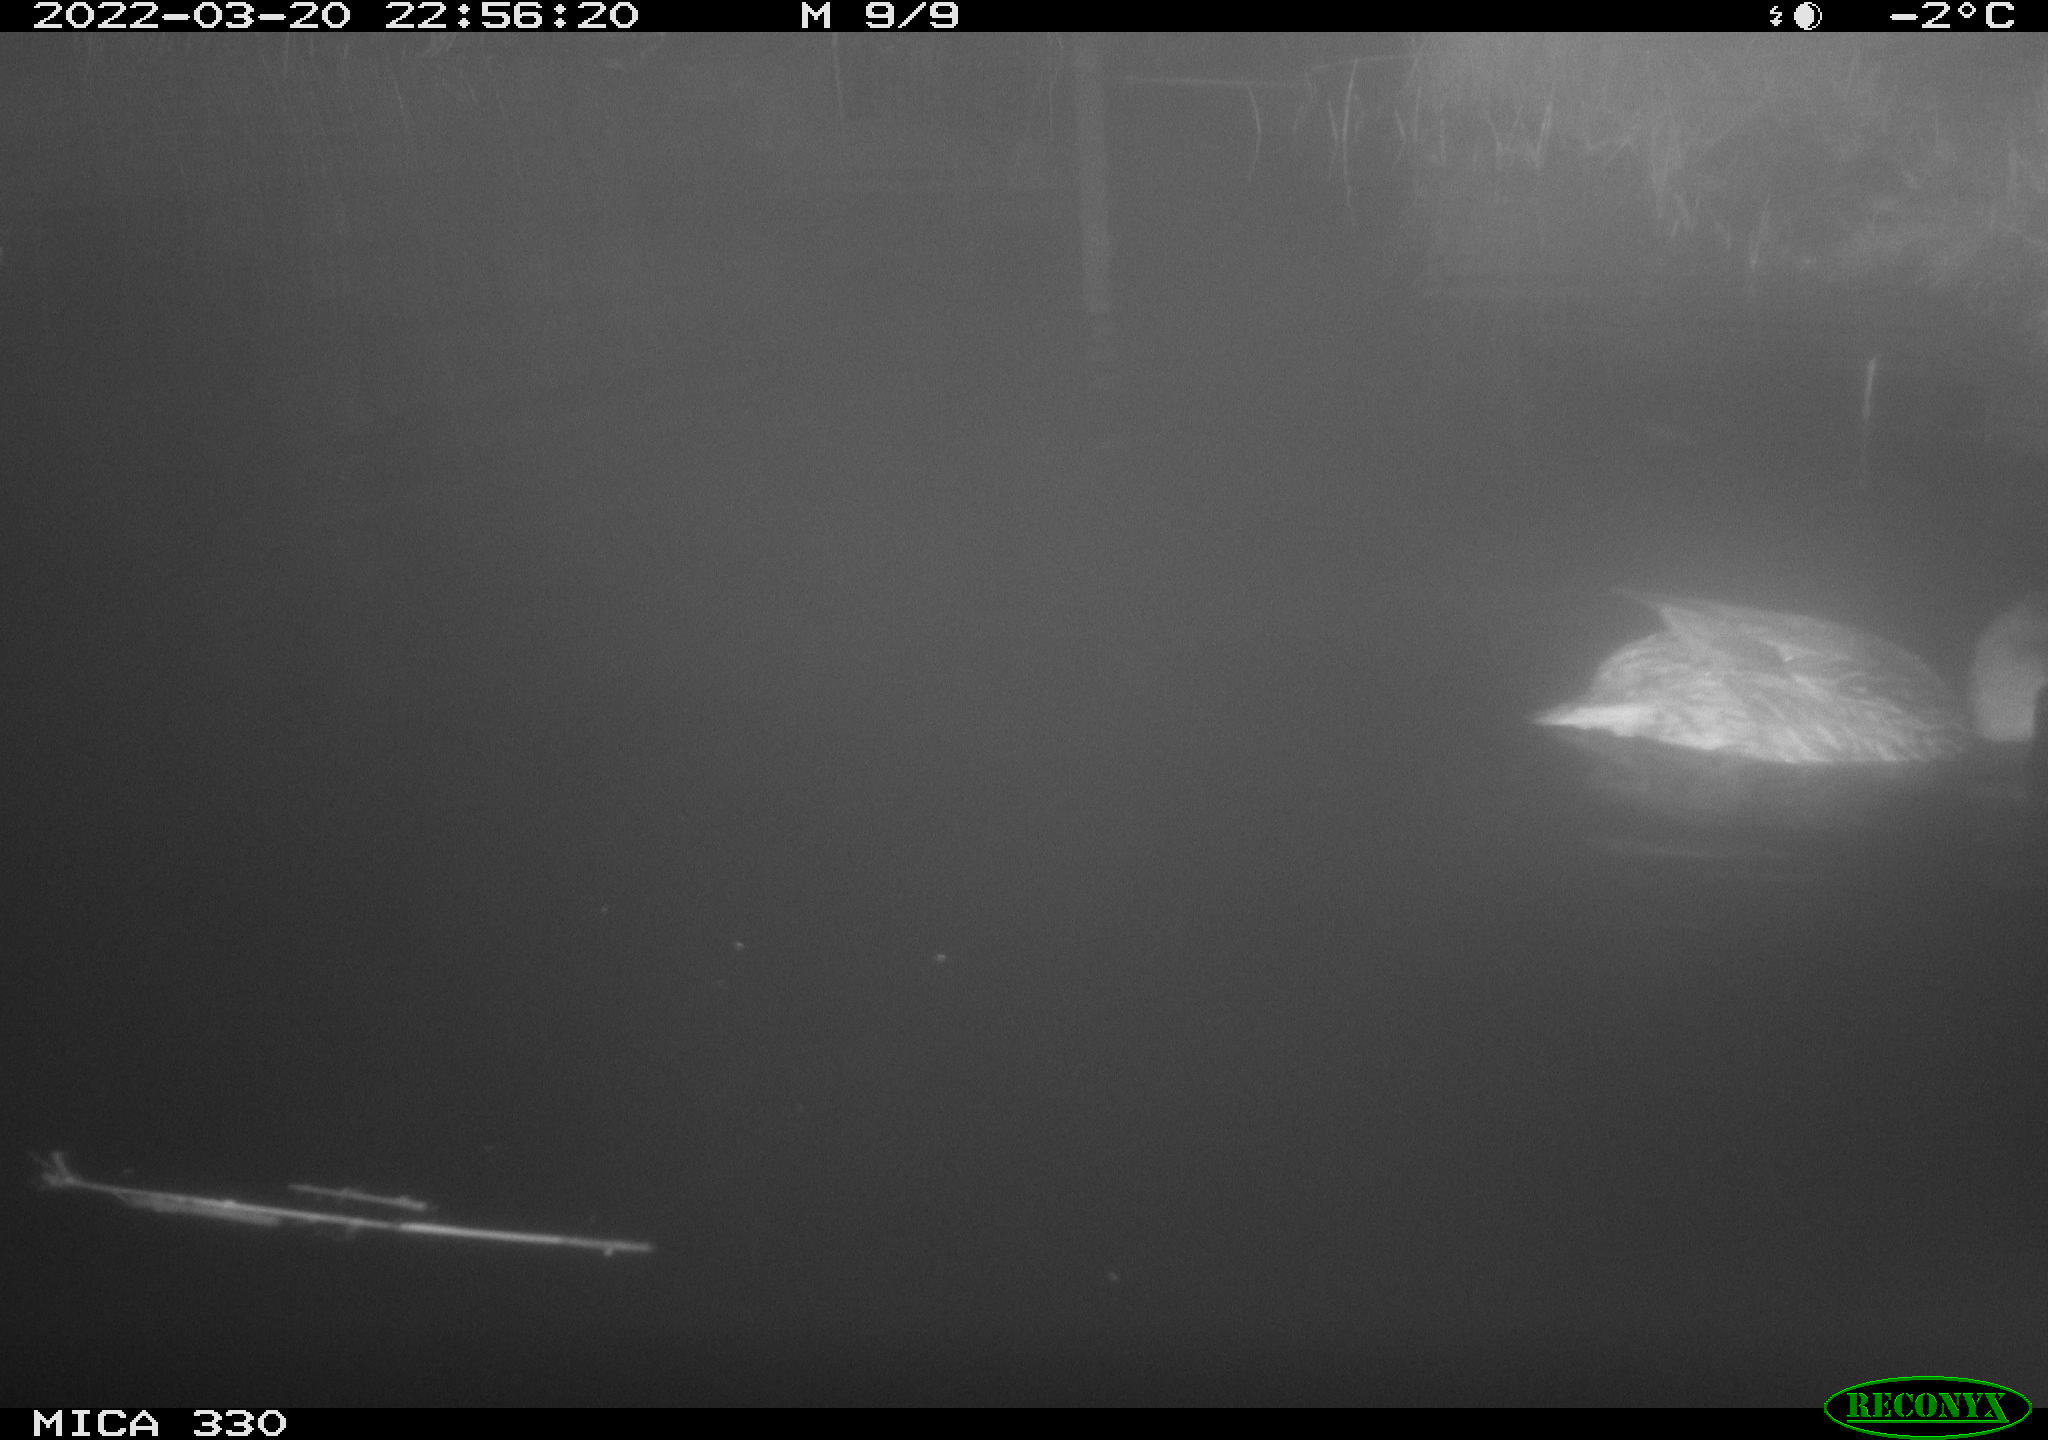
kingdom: Animalia
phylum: Chordata
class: Aves
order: Anseriformes
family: Anatidae
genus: Anas
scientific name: Anas platyrhynchos
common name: Mallard
